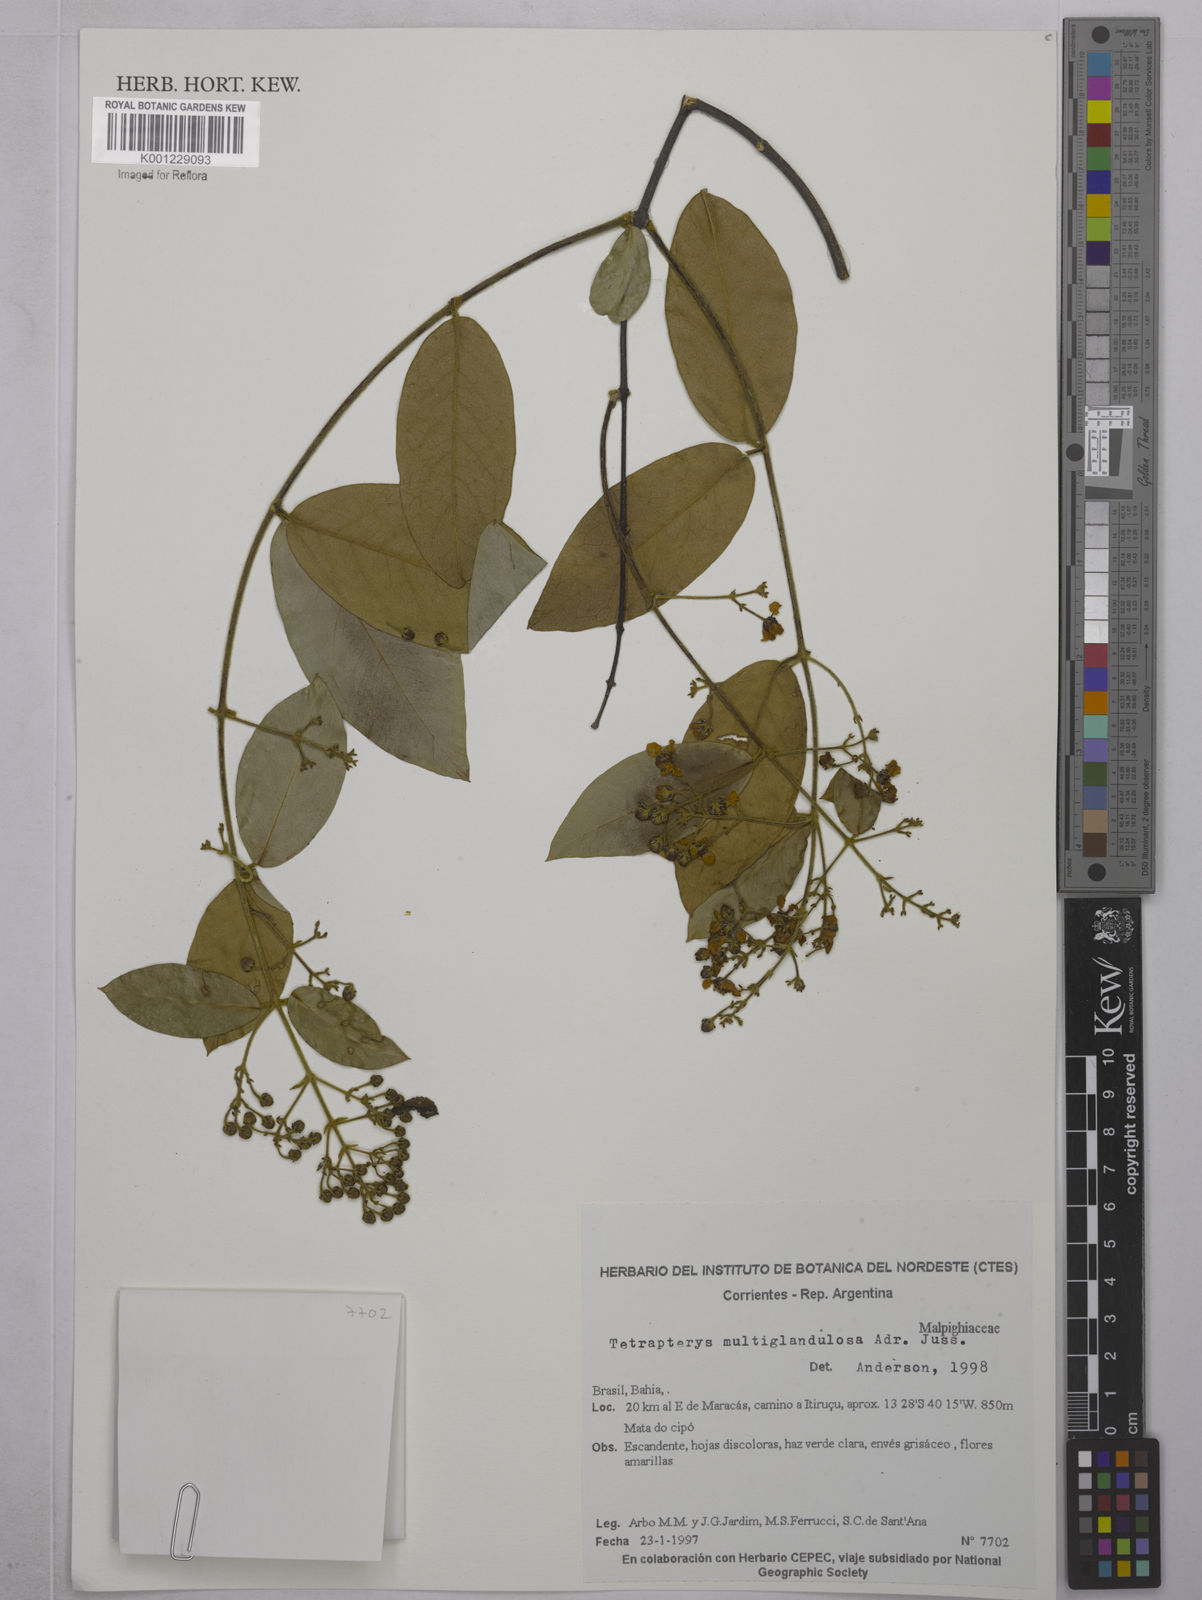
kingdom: Plantae
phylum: Tracheophyta
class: Magnoliopsida
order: Malpighiales
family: Malpighiaceae
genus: Niedenzuella
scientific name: Niedenzuella multiglandulosa
